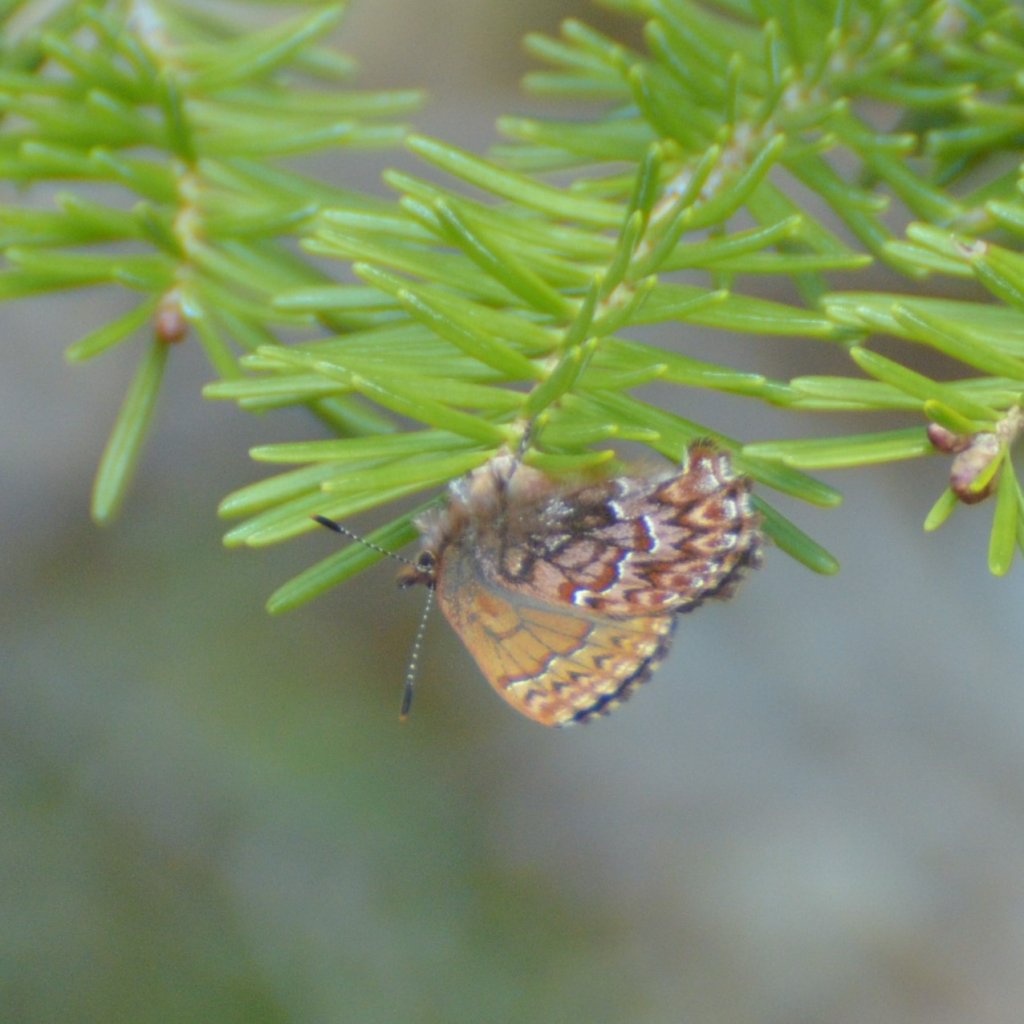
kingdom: Animalia
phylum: Arthropoda
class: Insecta
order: Lepidoptera
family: Lycaenidae
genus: Incisalia
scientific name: Incisalia eryphon
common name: Western Pine Elfin
